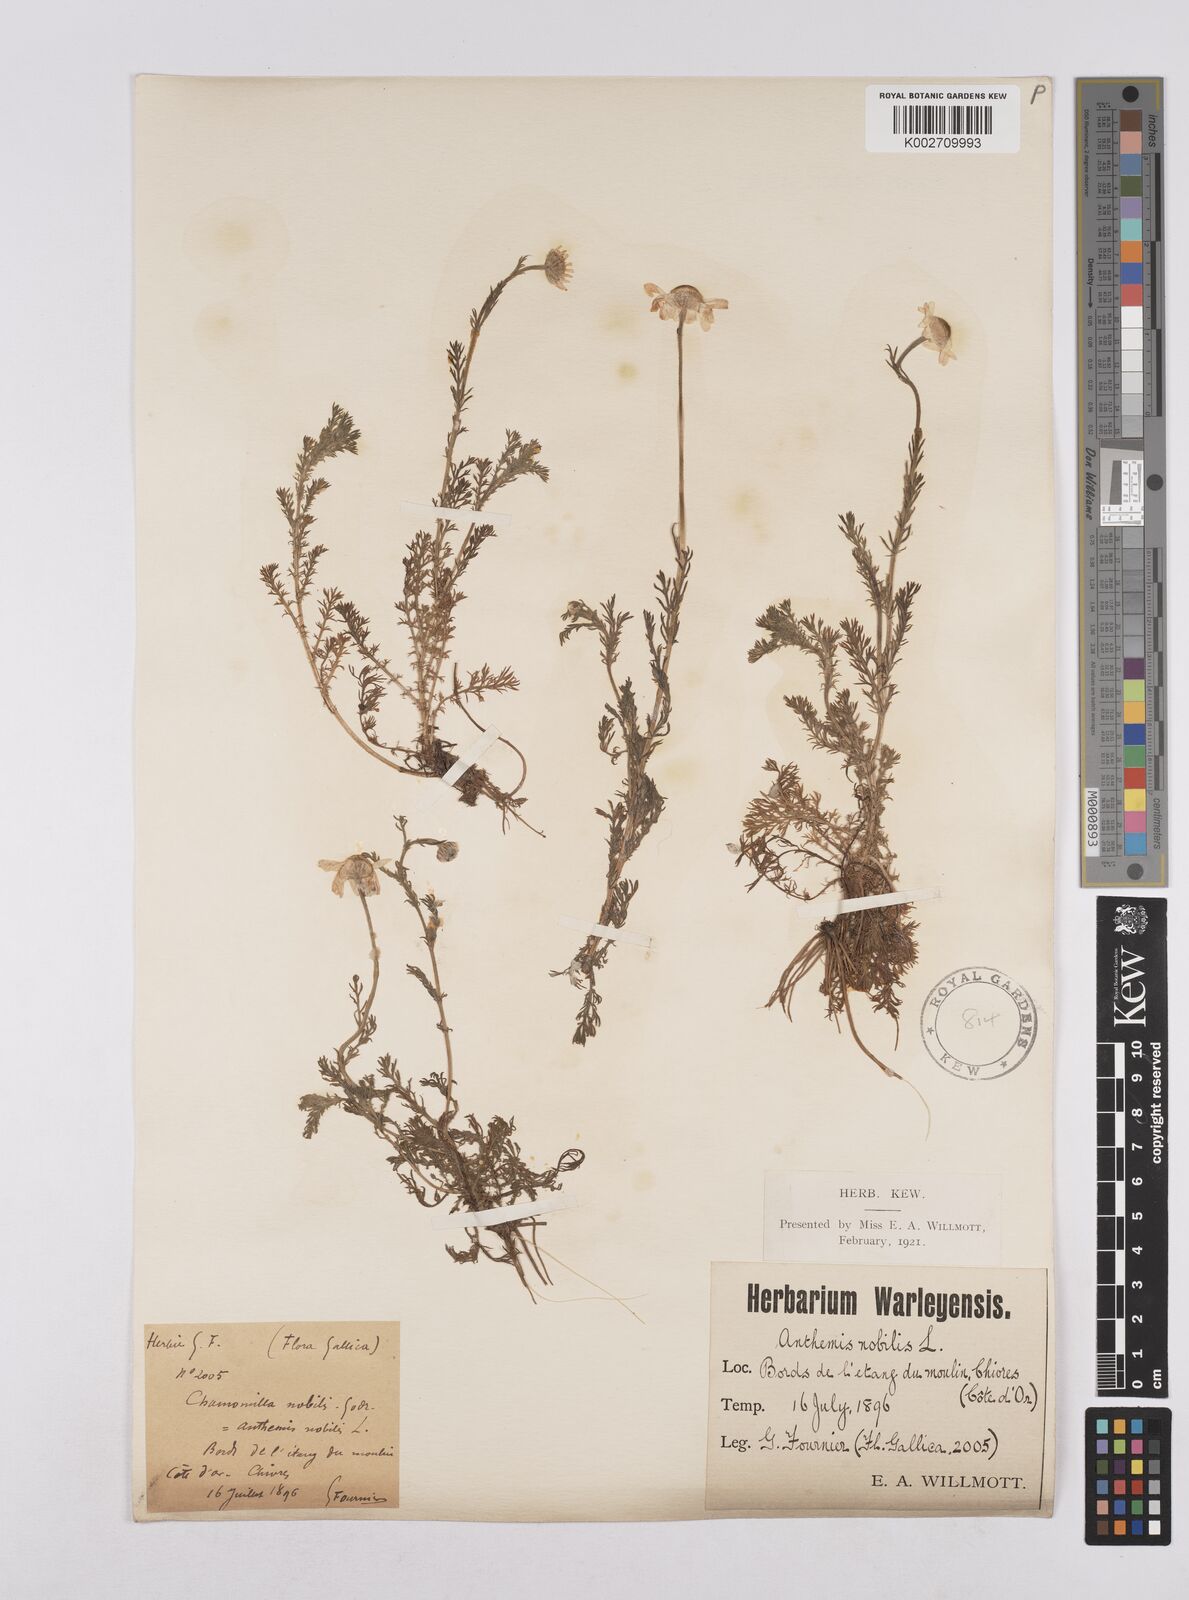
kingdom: Plantae
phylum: Tracheophyta
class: Magnoliopsida
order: Asterales
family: Asteraceae
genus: Chamaemelum
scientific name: Chamaemelum nobile
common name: Roman chamomile
